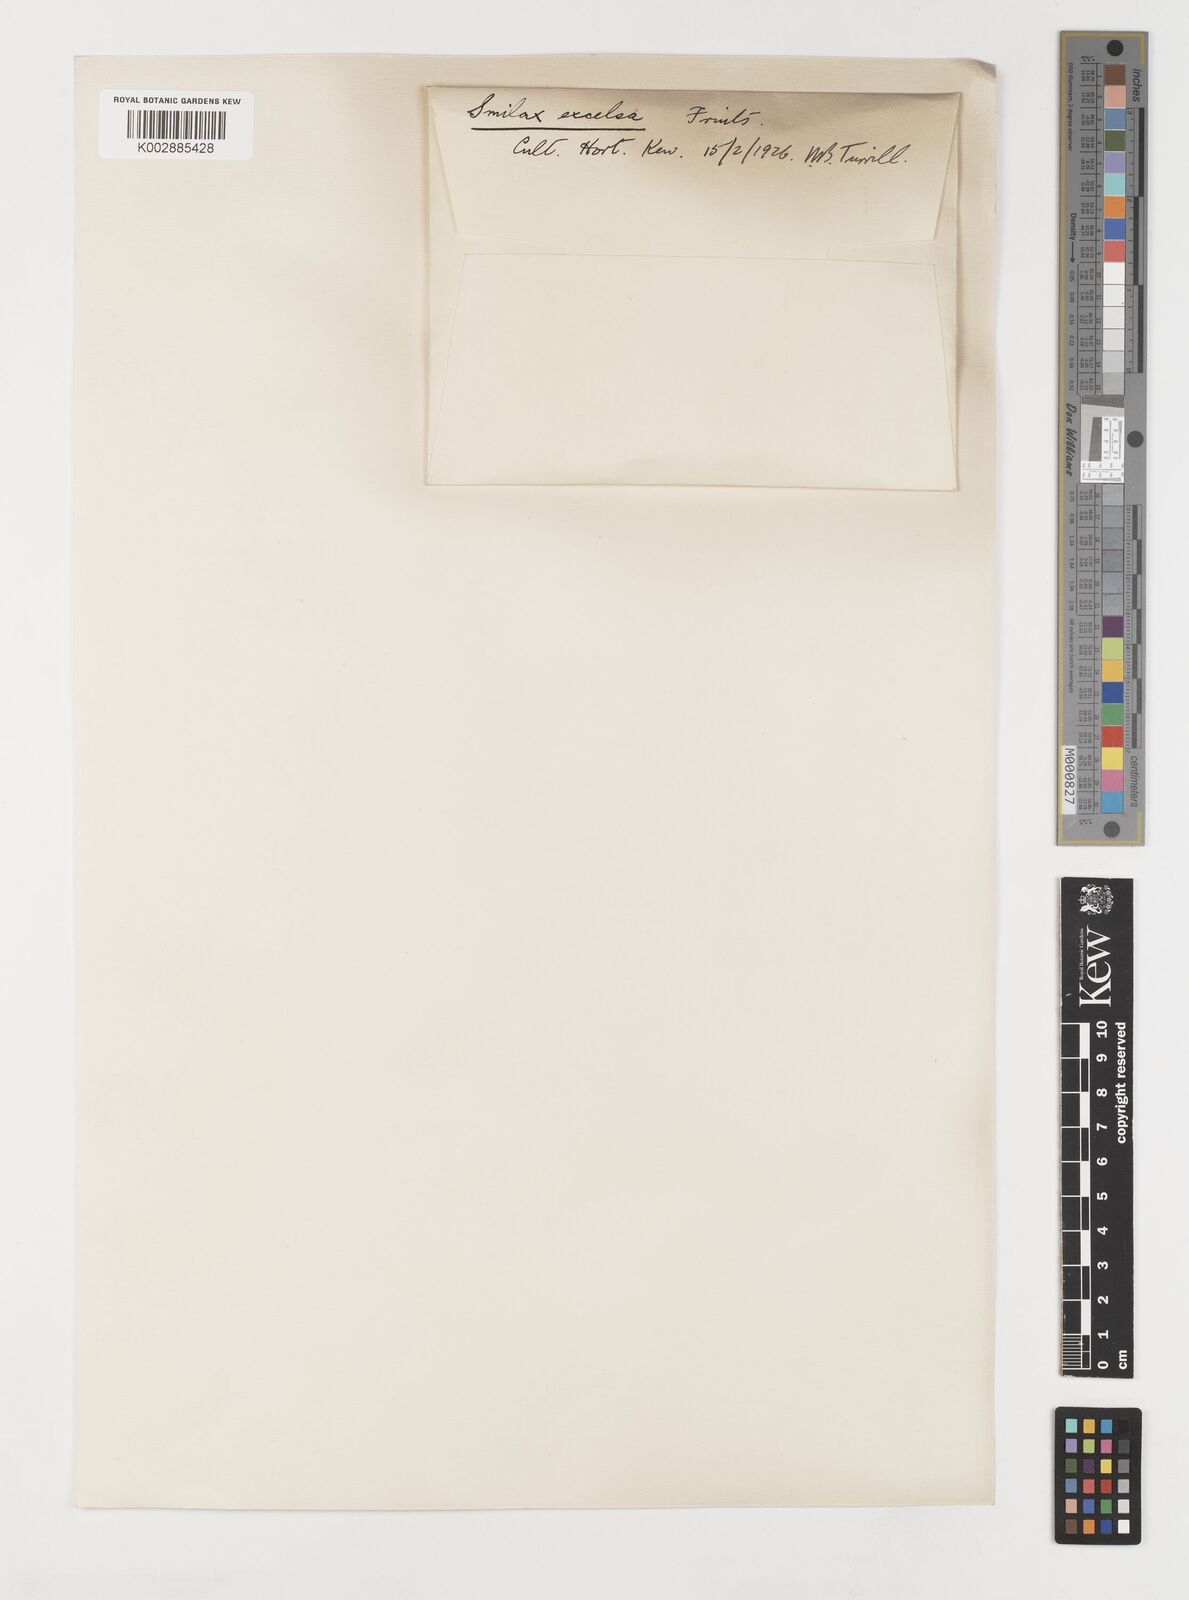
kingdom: Plantae
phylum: Tracheophyta
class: Liliopsida
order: Liliales
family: Smilacaceae
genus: Smilax
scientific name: Smilax excelsa
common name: Larger smilax
